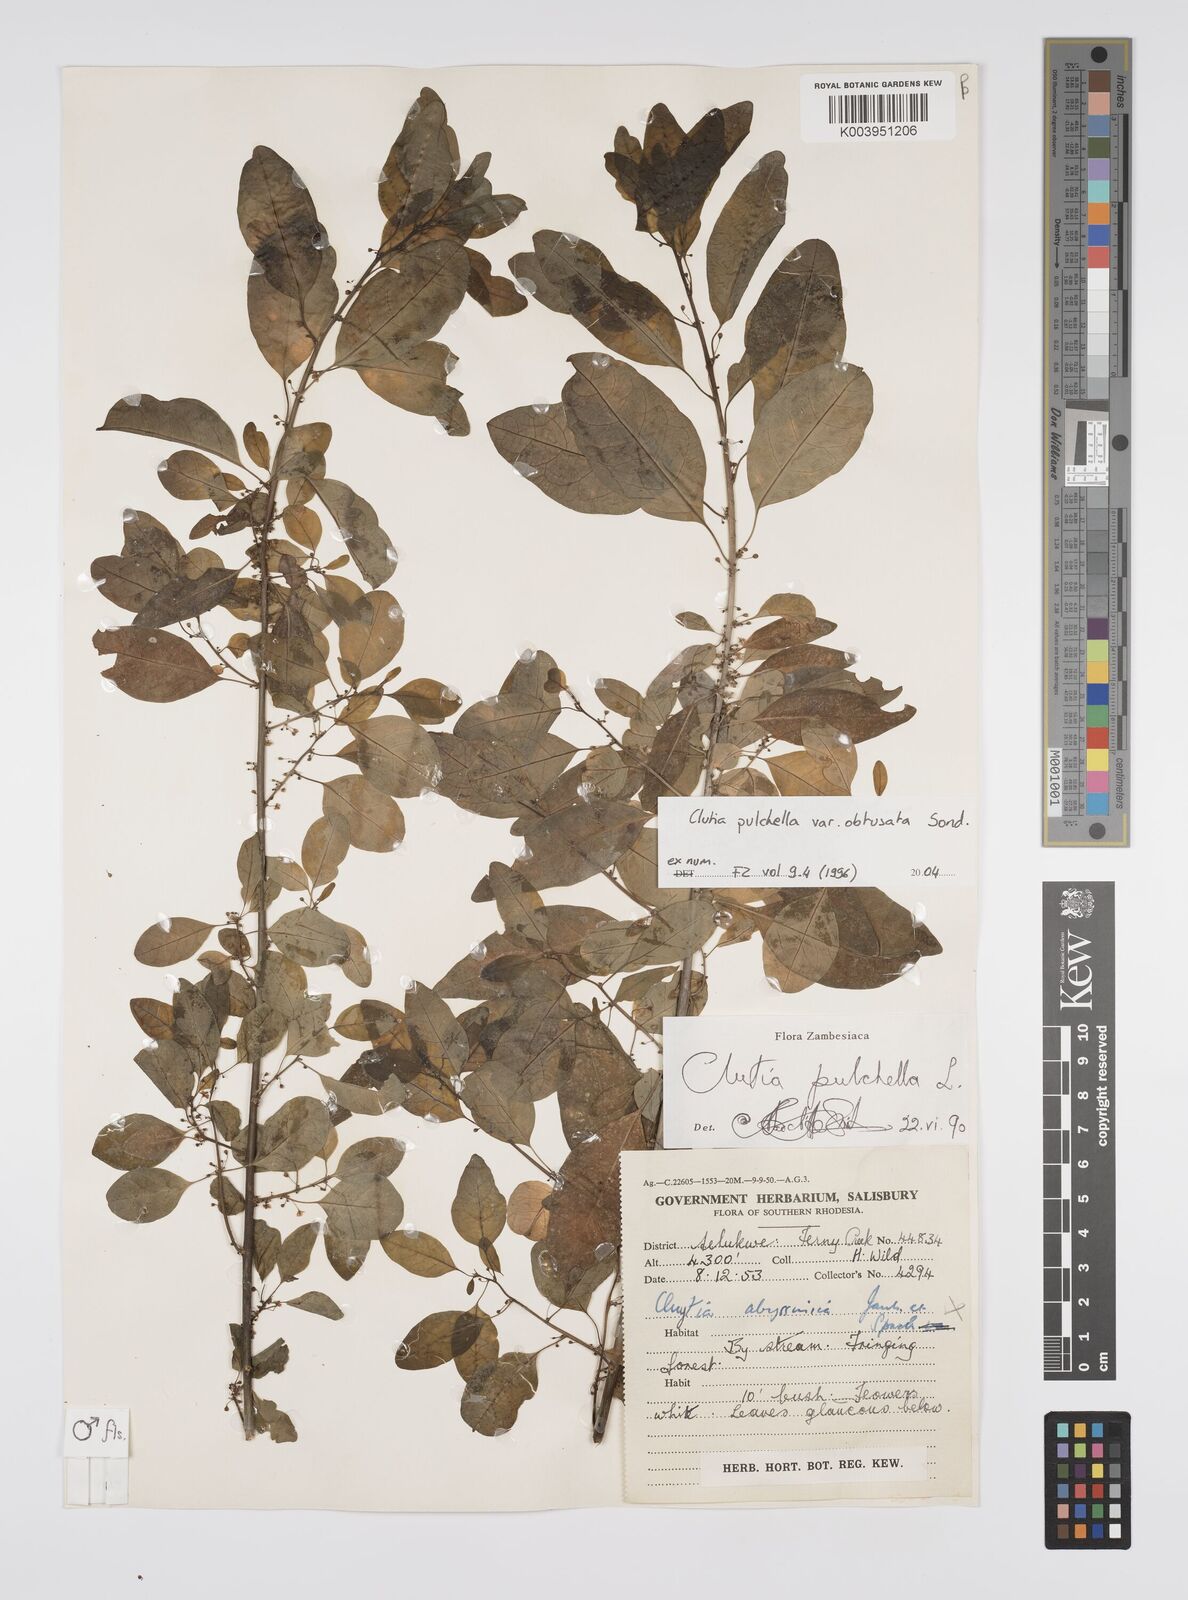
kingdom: Plantae
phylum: Tracheophyta
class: Magnoliopsida
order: Malpighiales
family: Peraceae
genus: Clutia
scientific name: Clutia pulchella
